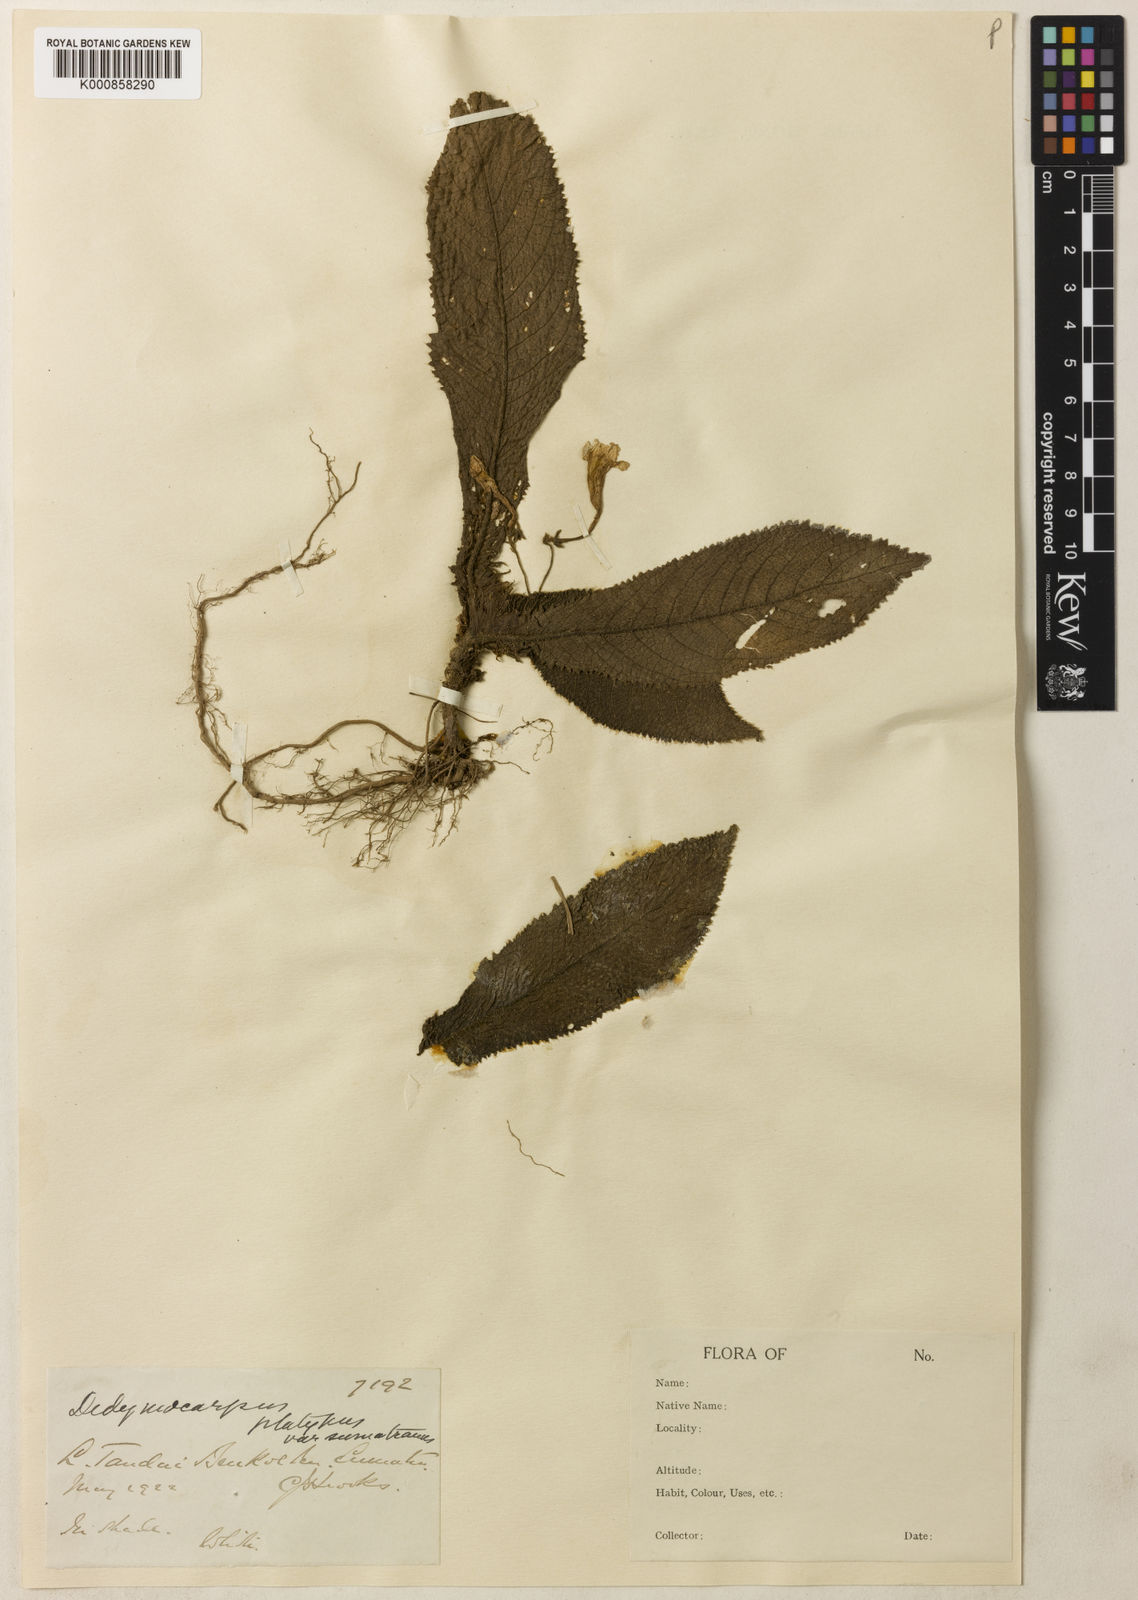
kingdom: Plantae
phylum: Tracheophyta
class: Magnoliopsida
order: Lamiales
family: Gesneriaceae
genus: Codonoboea
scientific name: Codonoboea platypus
